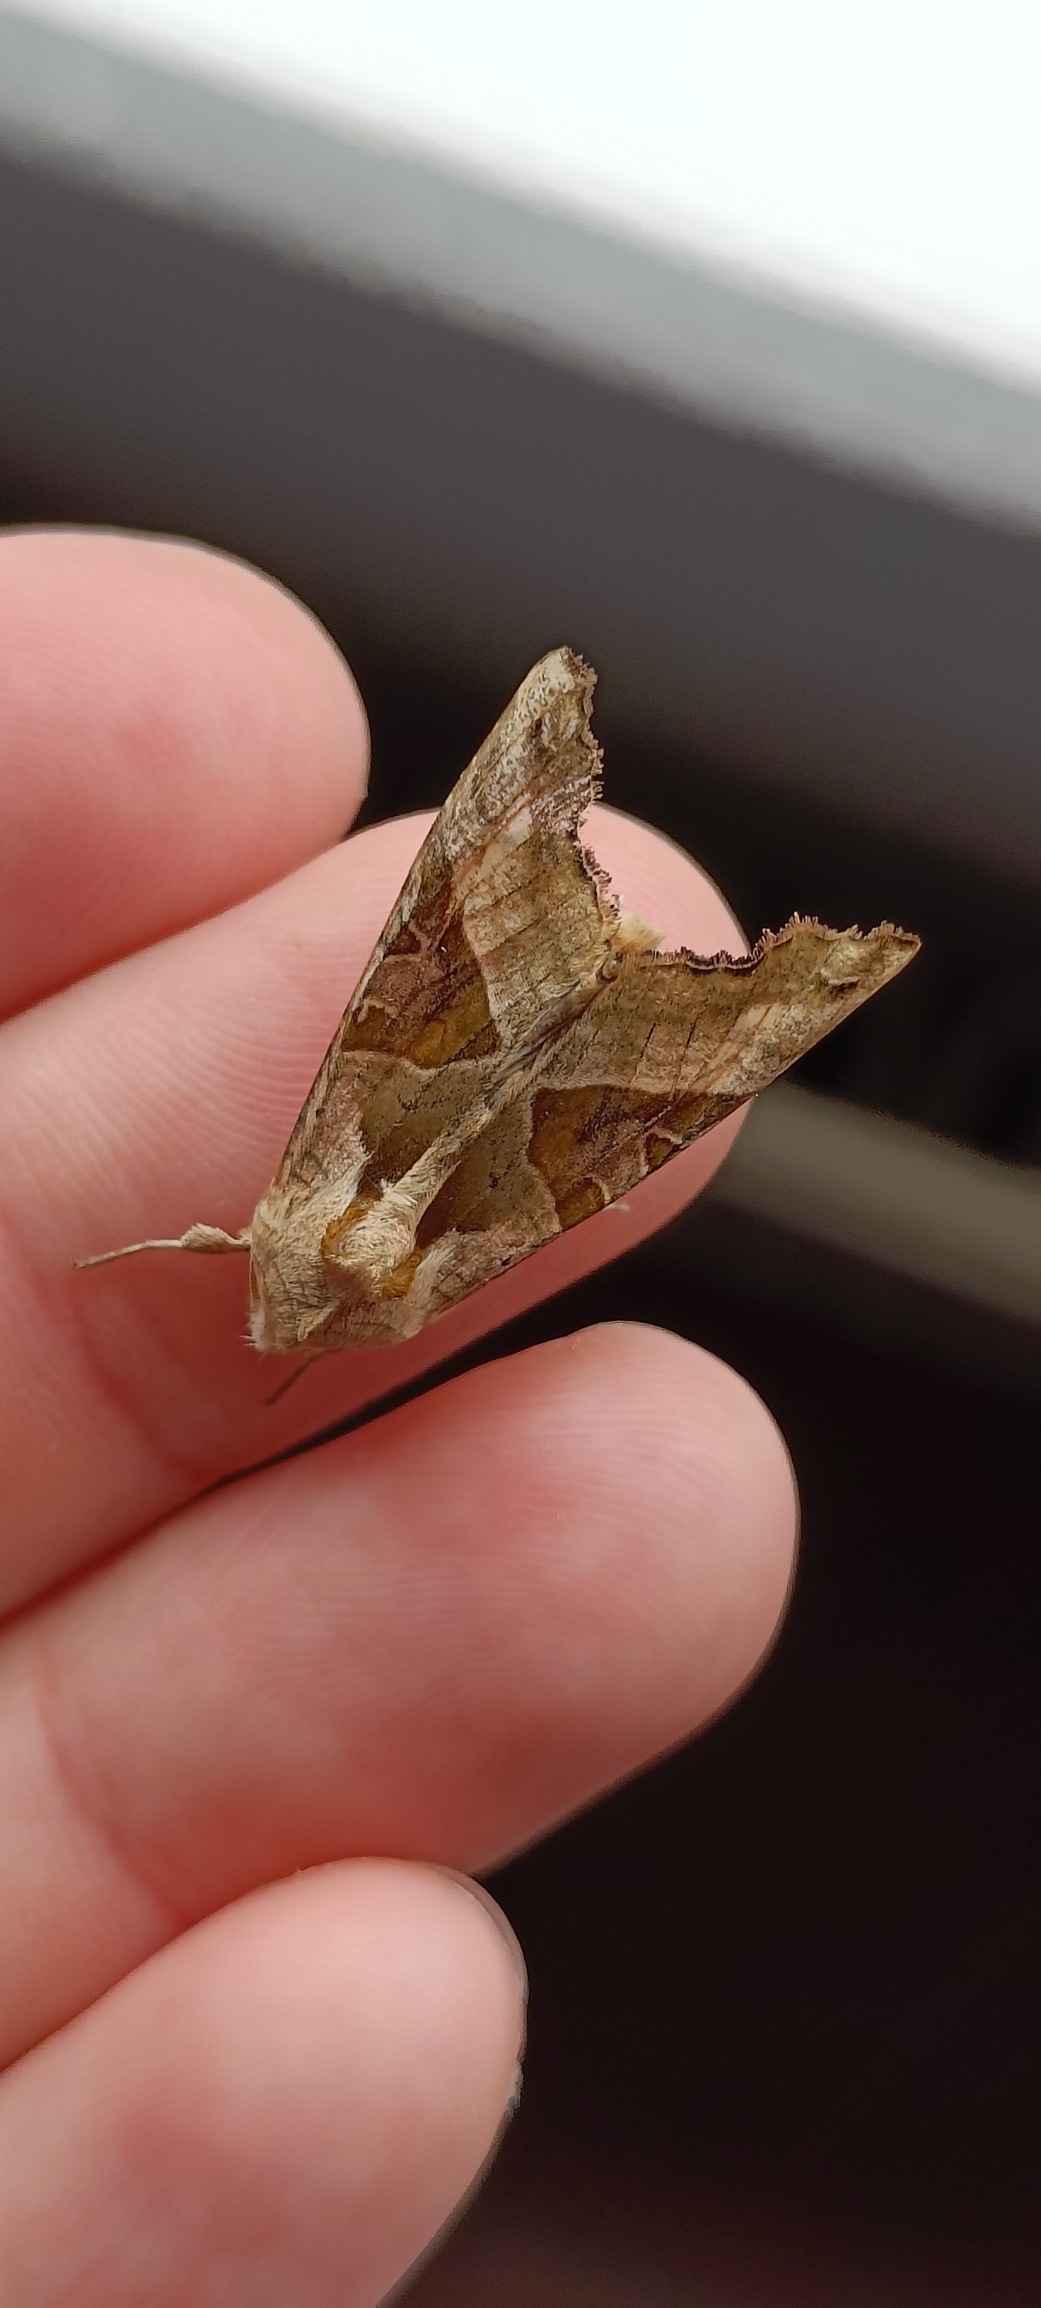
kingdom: Animalia
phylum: Arthropoda
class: Insecta
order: Lepidoptera
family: Noctuidae
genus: Phlogophora
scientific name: Phlogophora meticulosa
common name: Agatugle
